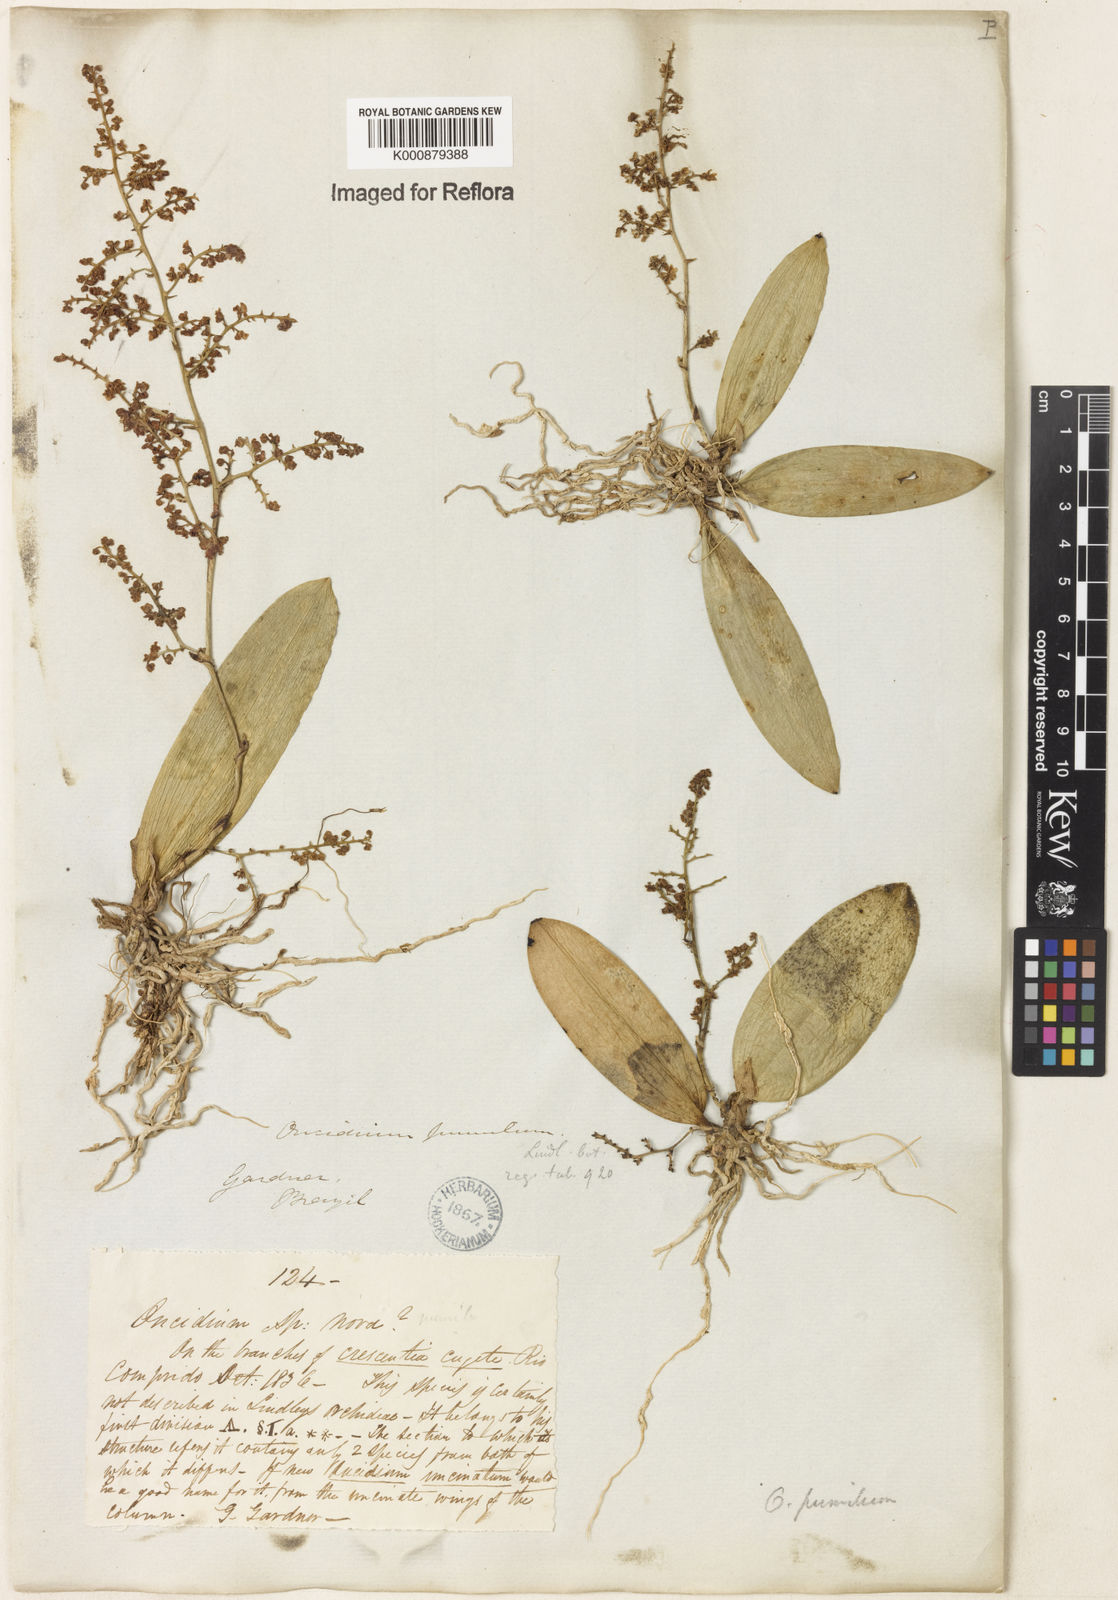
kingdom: Plantae
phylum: Tracheophyta
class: Liliopsida
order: Asparagales
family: Orchidaceae
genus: Trichocentrum
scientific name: Trichocentrum pumilum
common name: Mule-ear orchid
